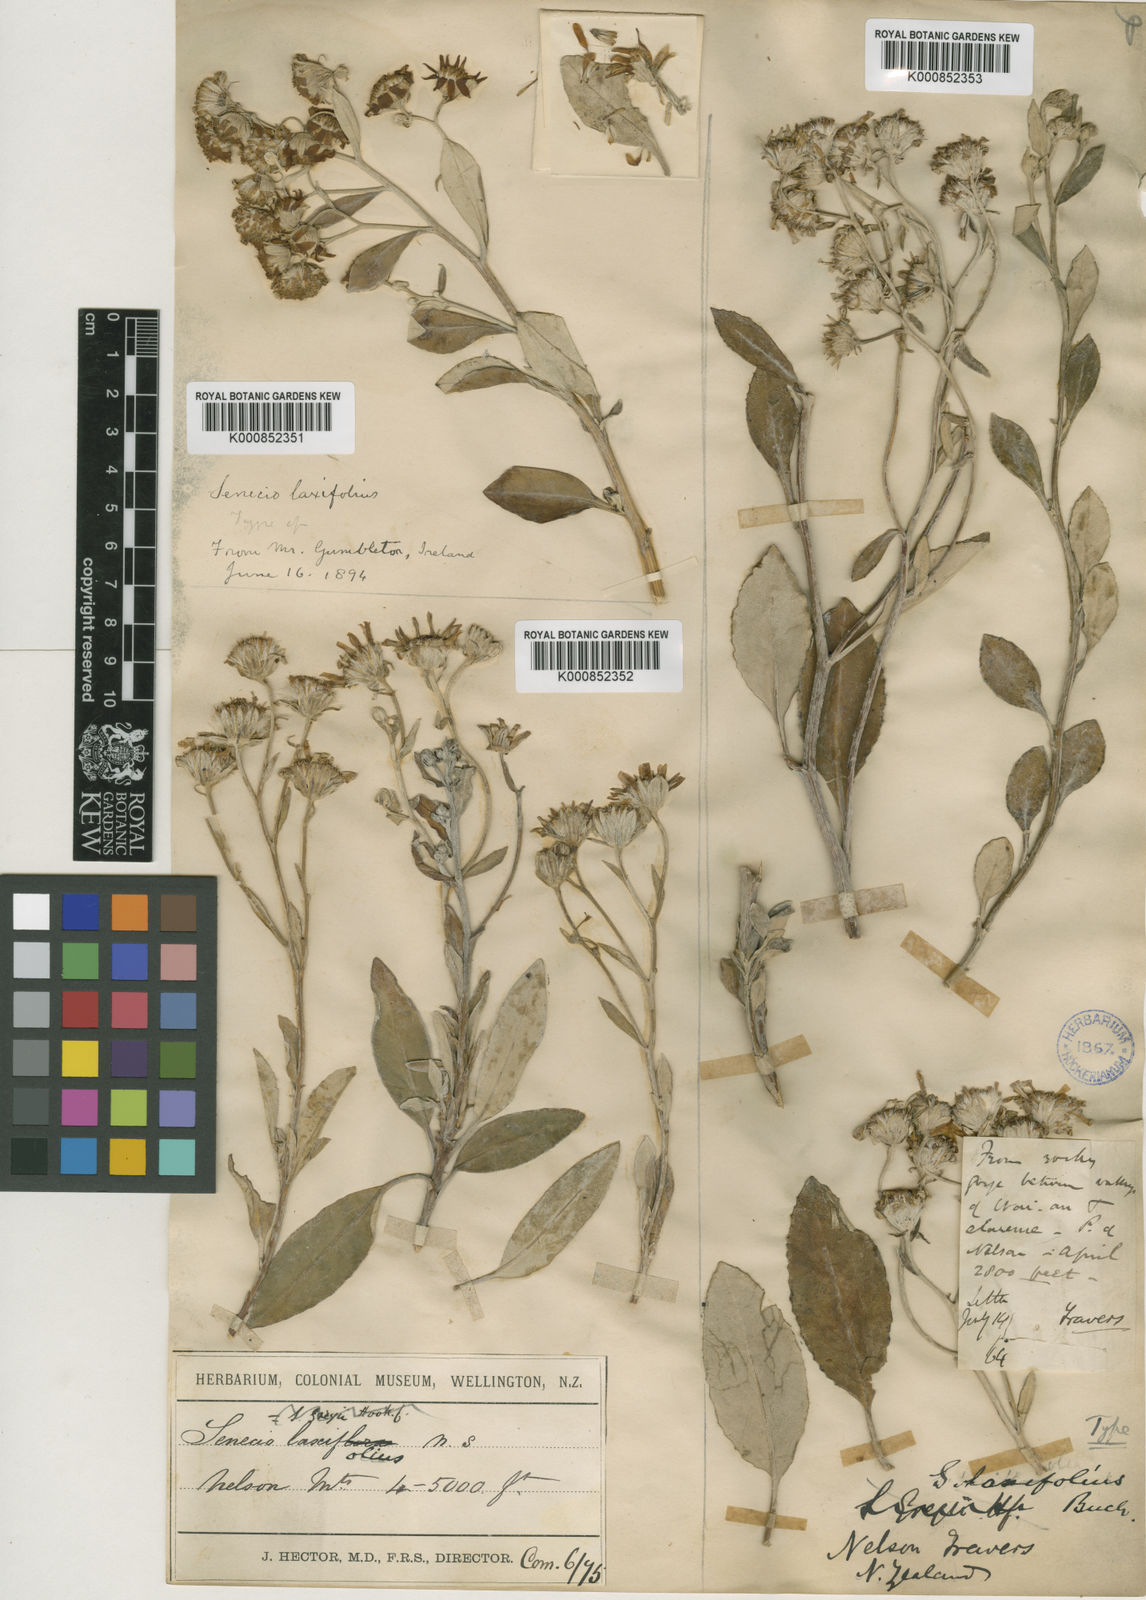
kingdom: Plantae
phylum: Tracheophyta
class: Magnoliopsida
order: Asterales
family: Asteraceae
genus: Brachyglottis
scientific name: Brachyglottis laxifolia
